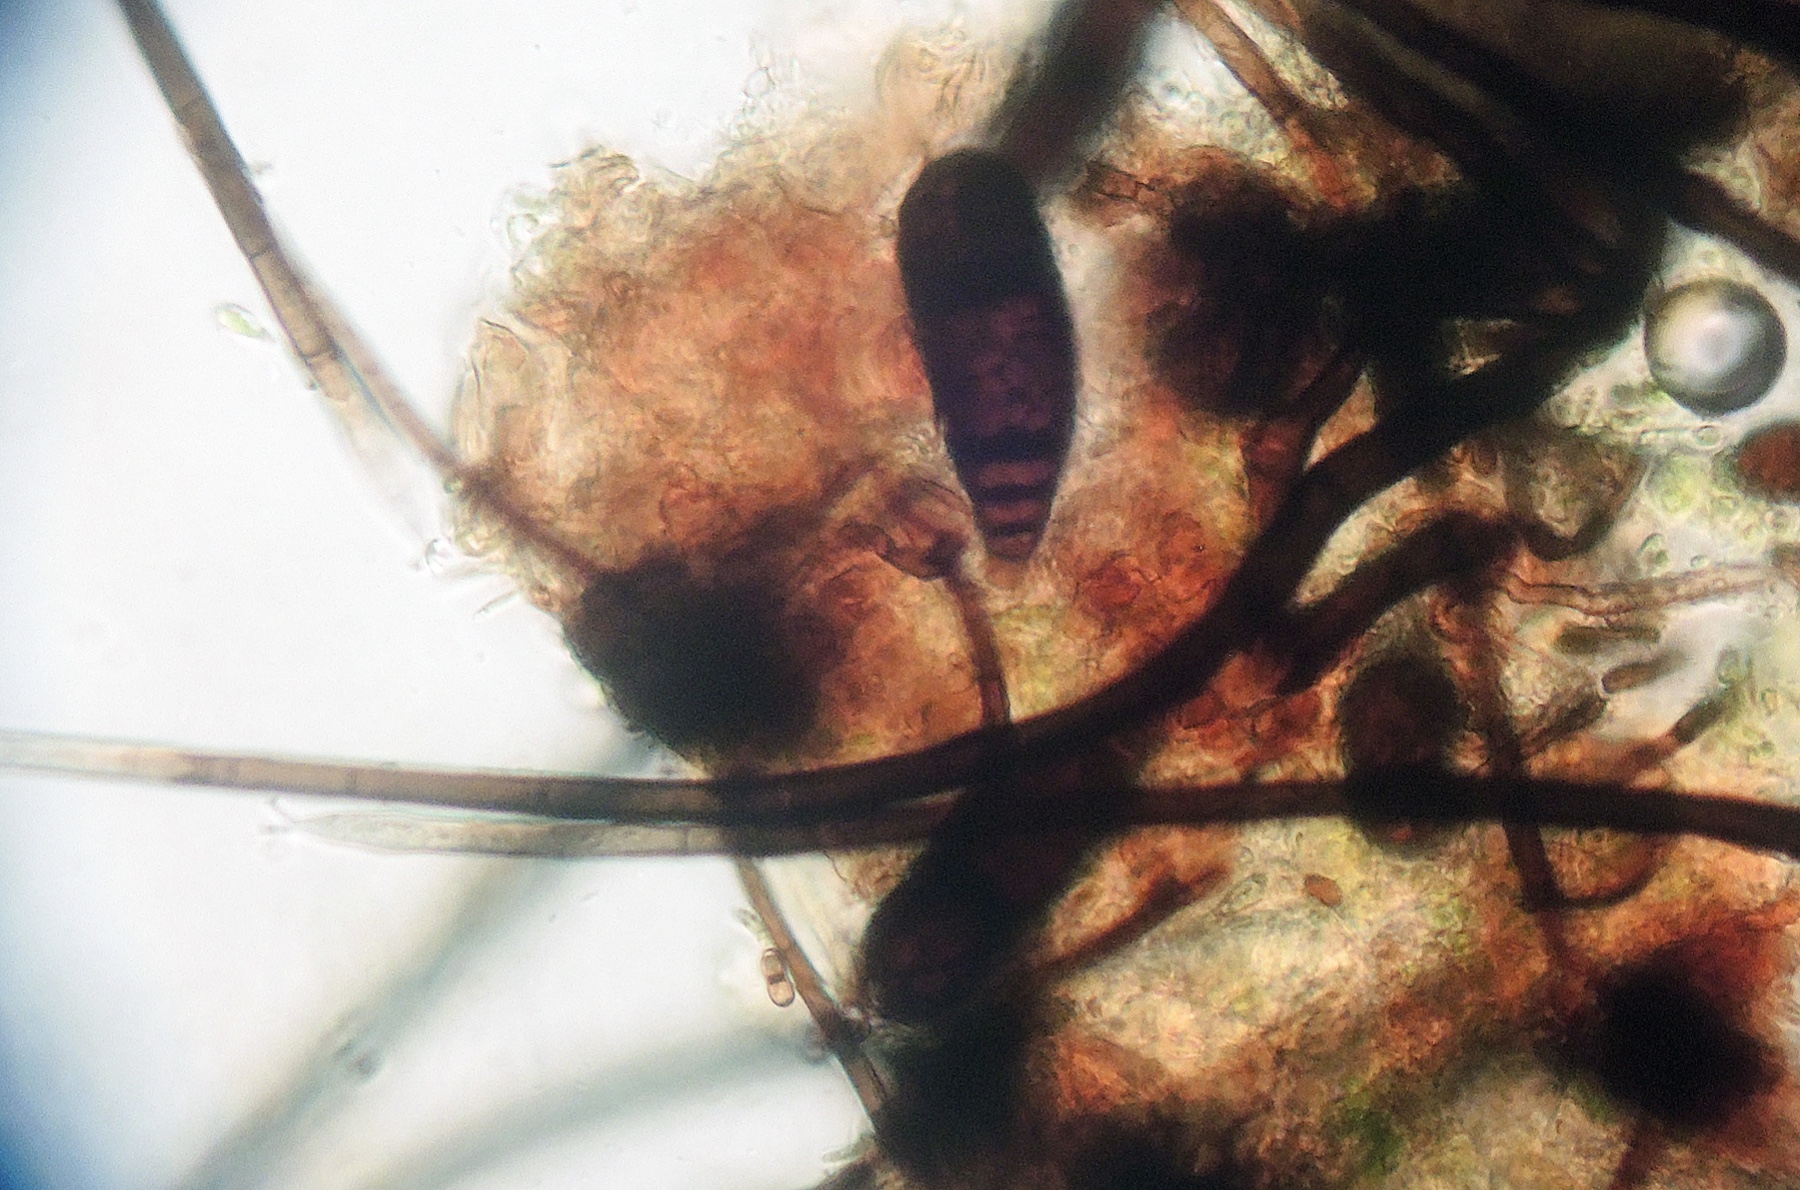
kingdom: Fungi
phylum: Ascomycota
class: Dothideomycetes
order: Pleosporales
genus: Bactrodesmium
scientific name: Bactrodesmium obovatum
